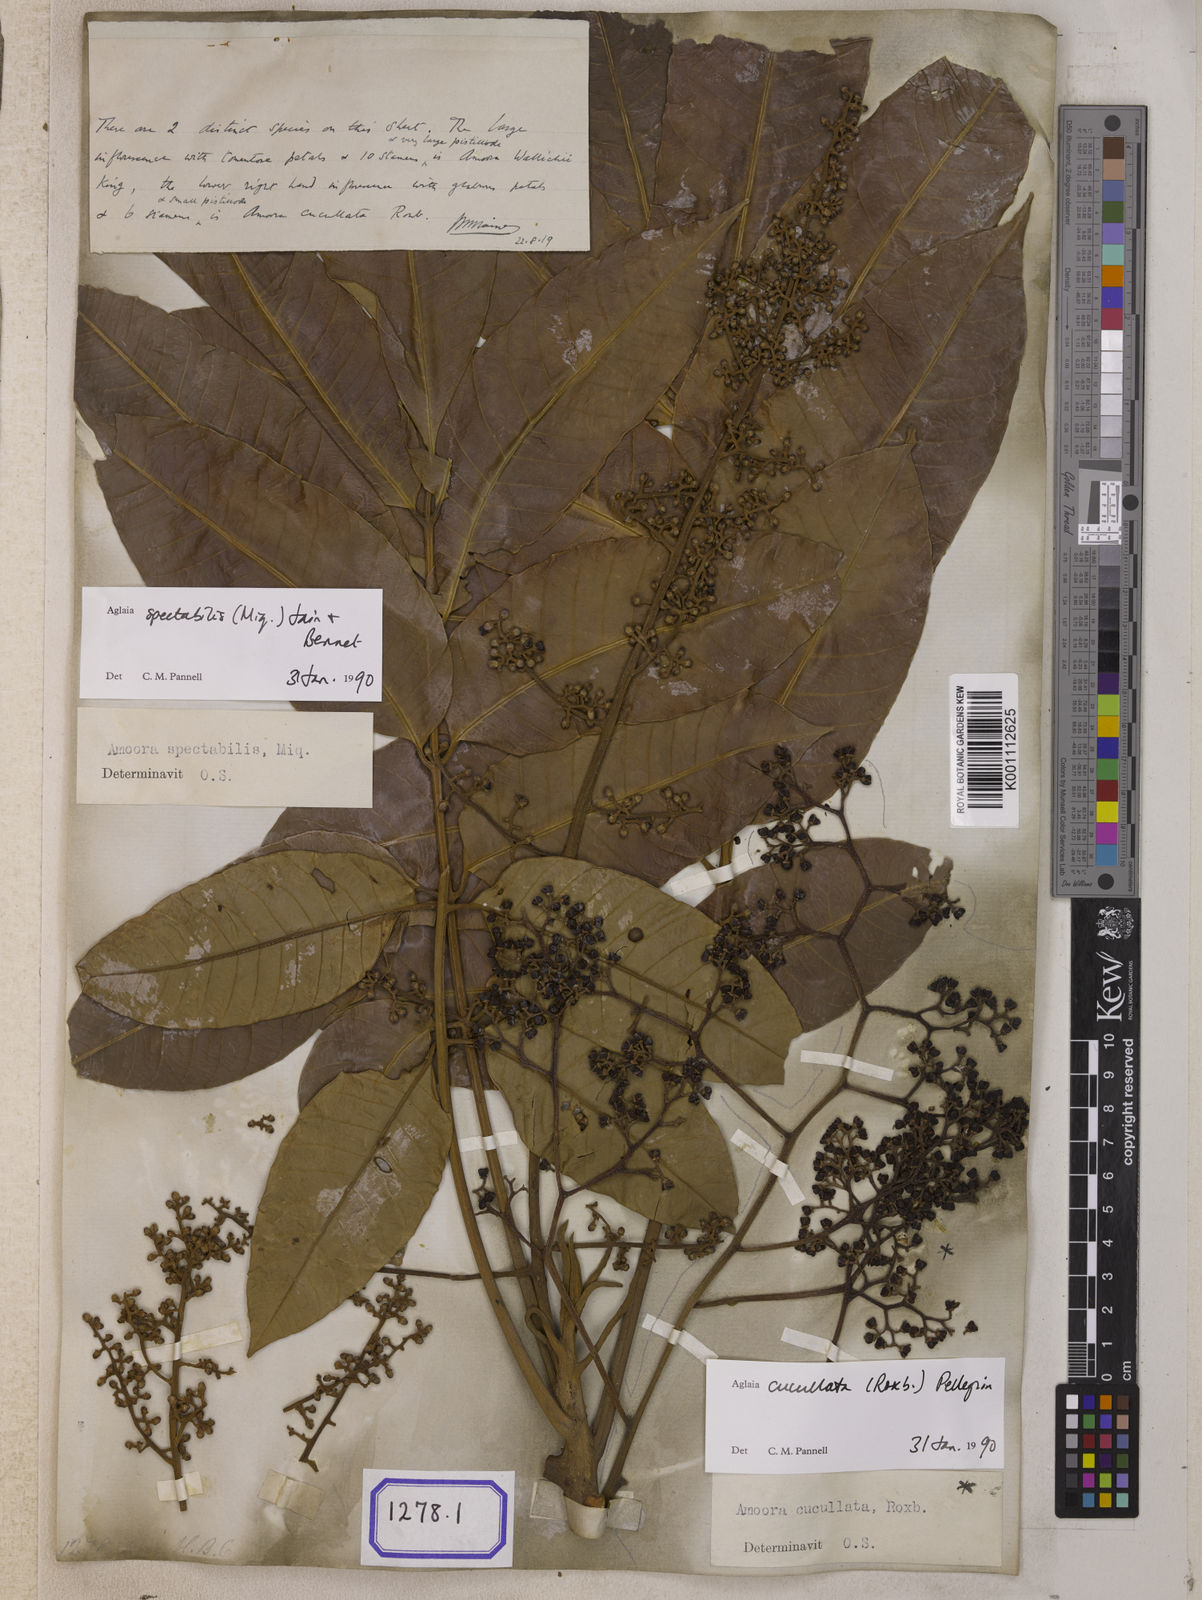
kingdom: Plantae
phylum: Tracheophyta
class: Magnoliopsida
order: Sapindales
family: Meliaceae
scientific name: Meliaceae
